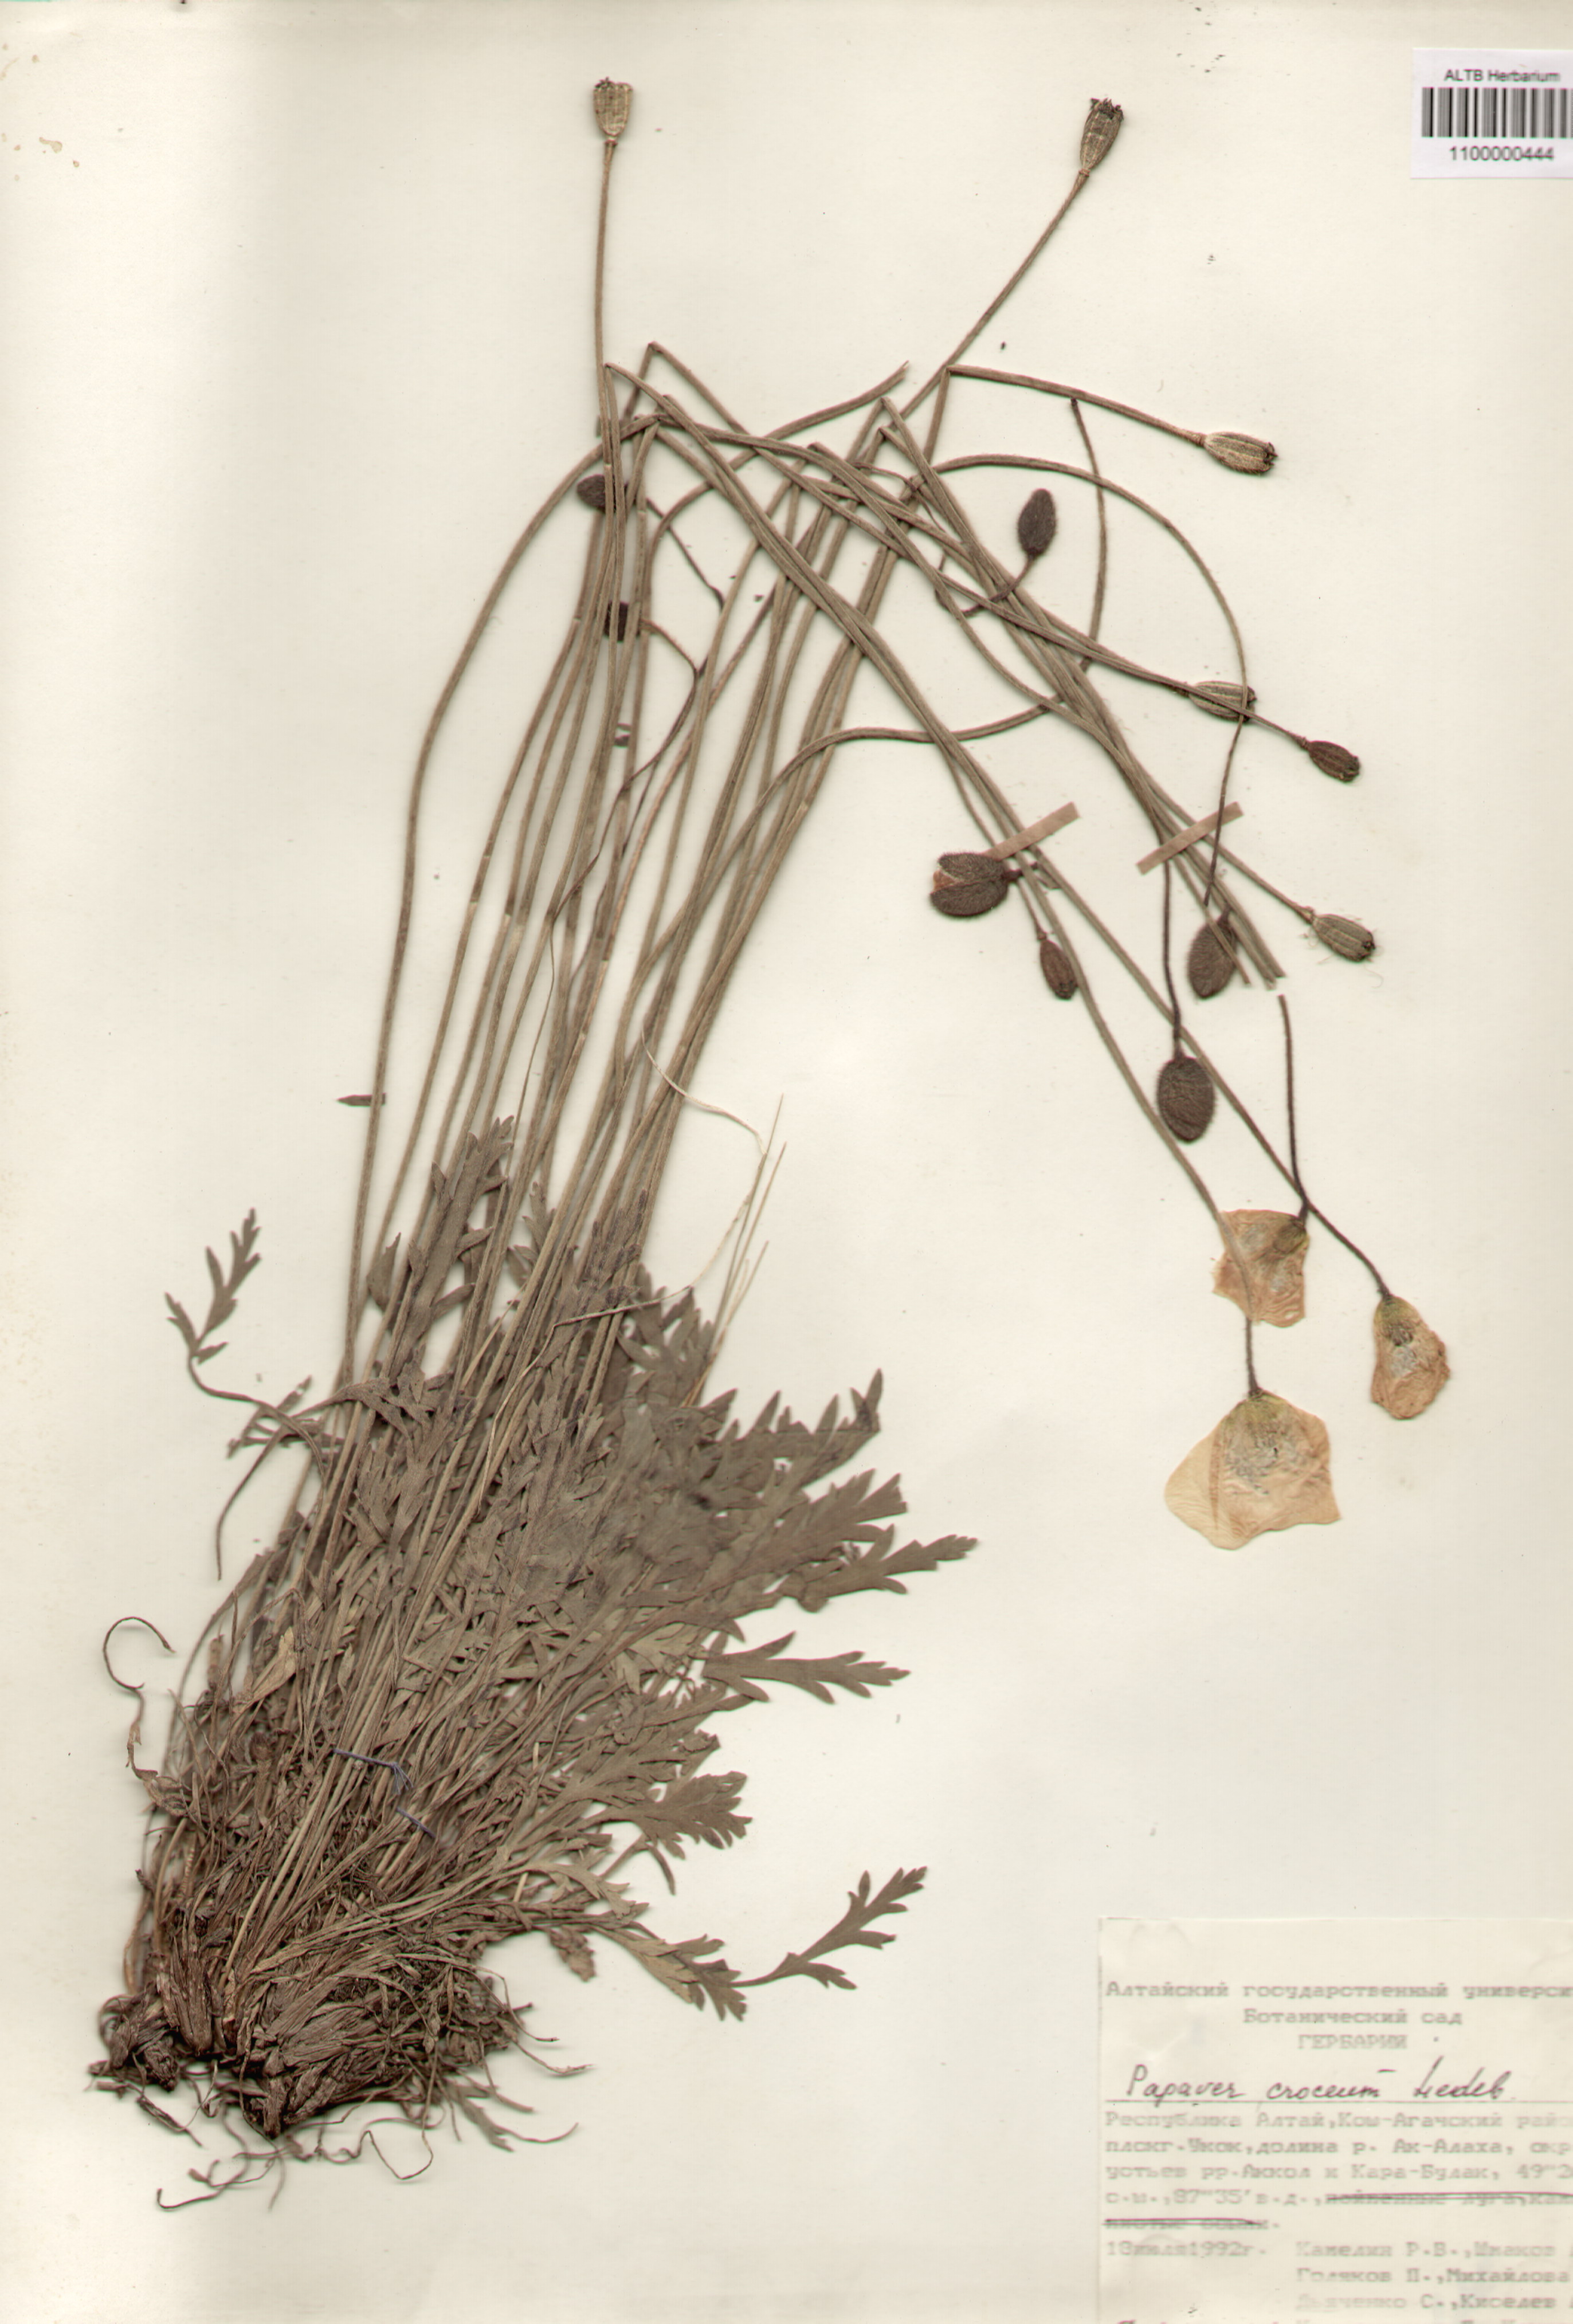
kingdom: Plantae
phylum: Tracheophyta
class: Magnoliopsida
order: Ranunculales
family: Papaveraceae
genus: Papaver
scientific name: Papaver croceum
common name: Siberian poppy
